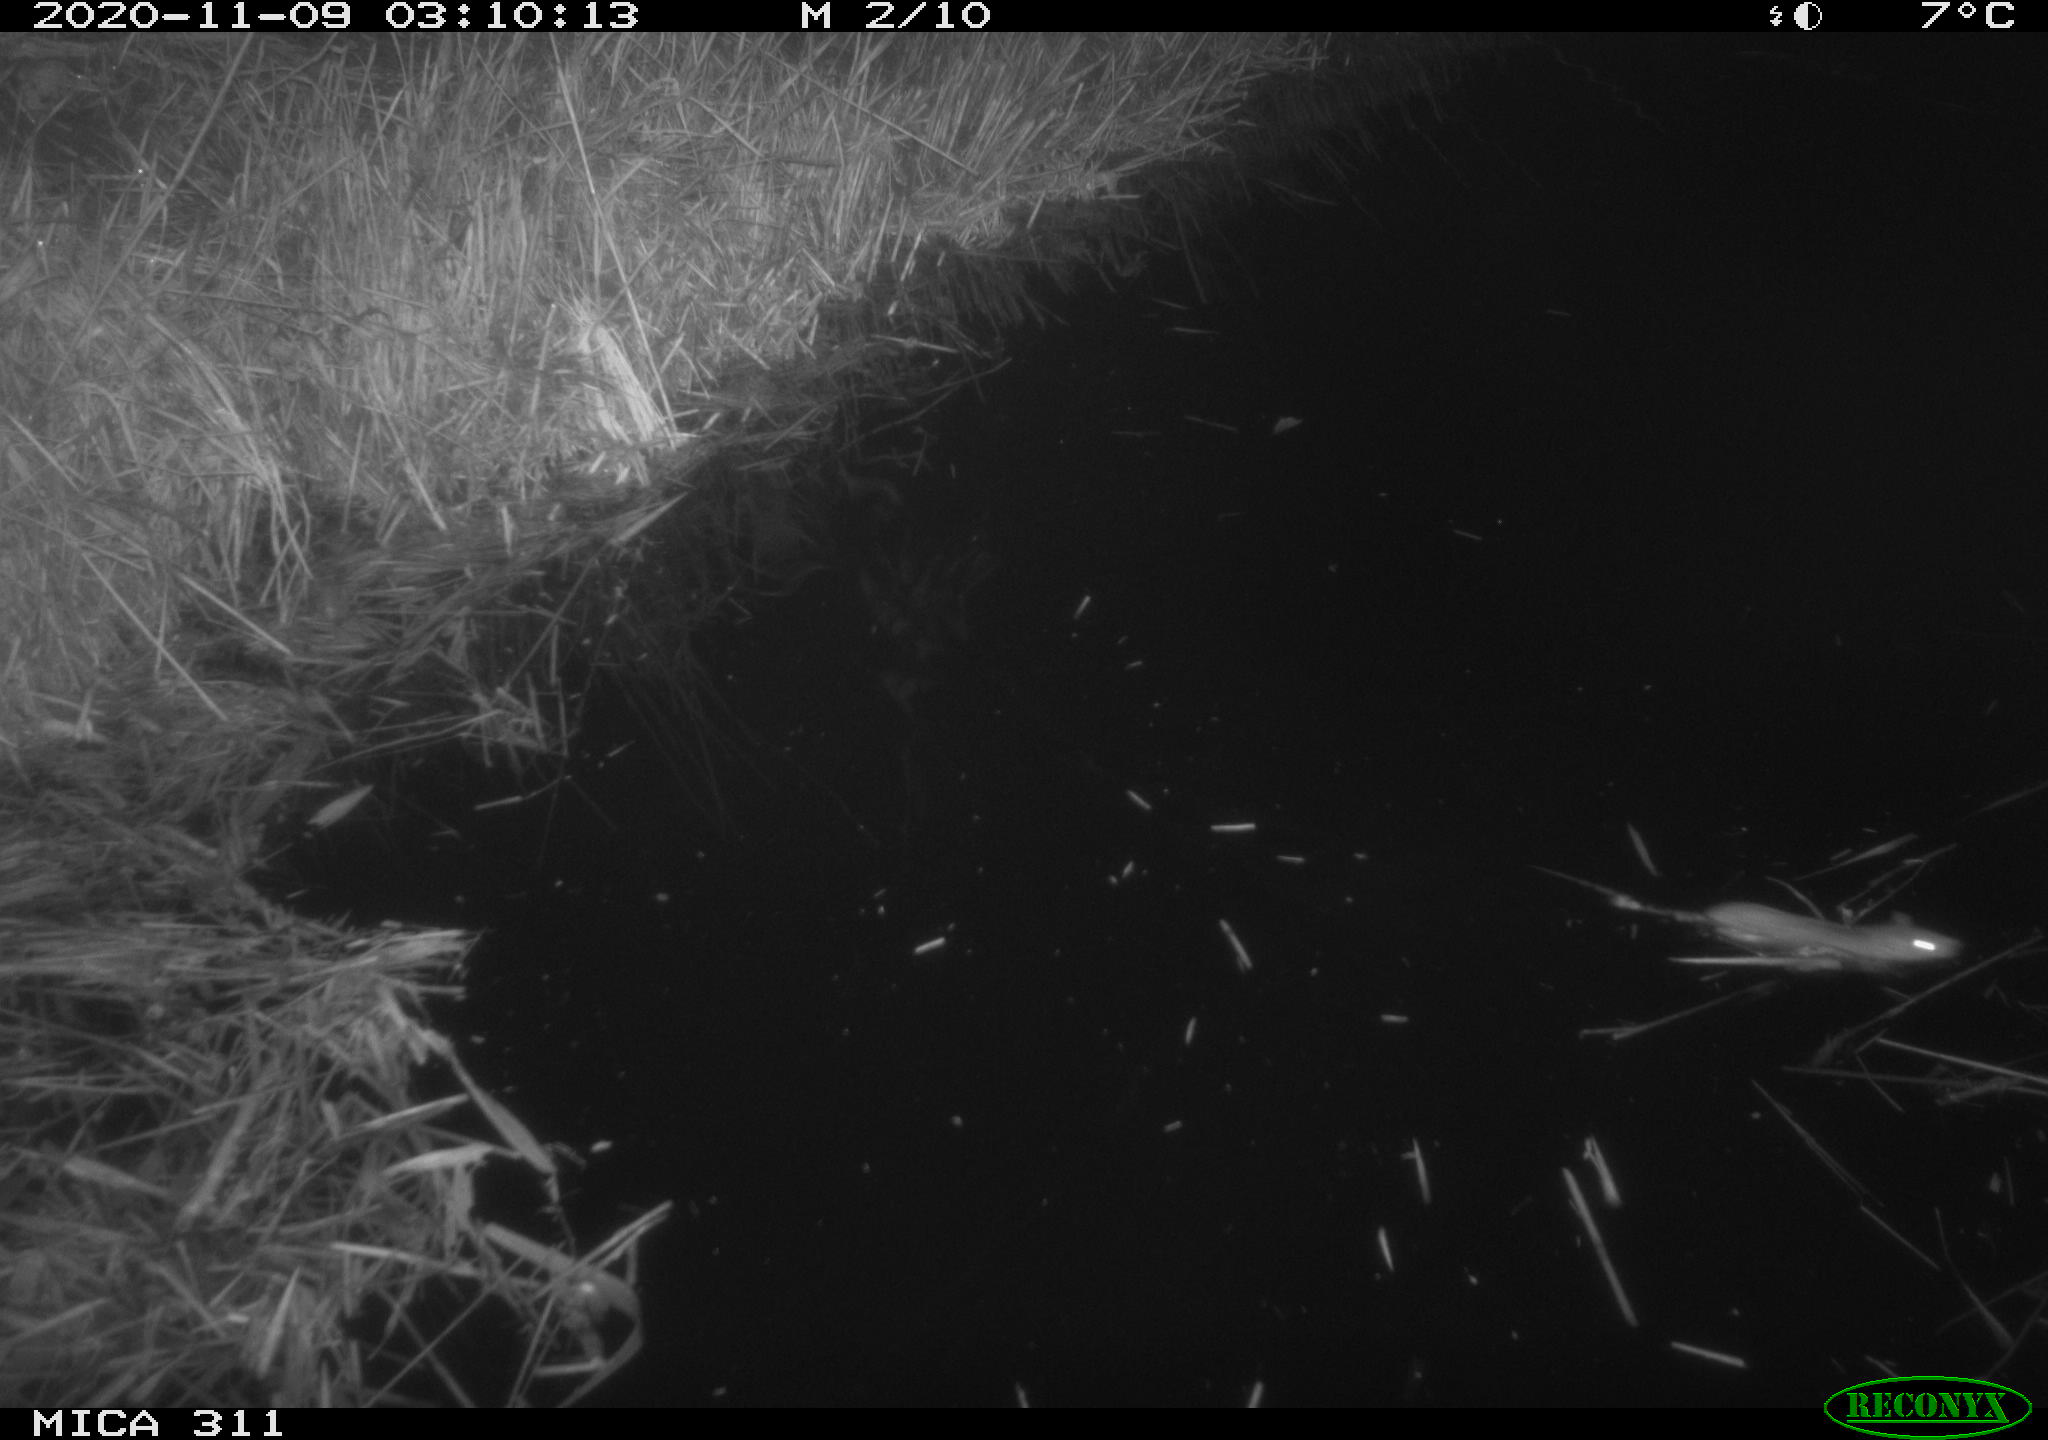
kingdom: Animalia
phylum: Chordata
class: Mammalia
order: Rodentia
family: Muridae
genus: Rattus
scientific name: Rattus norvegicus
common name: Brown rat
